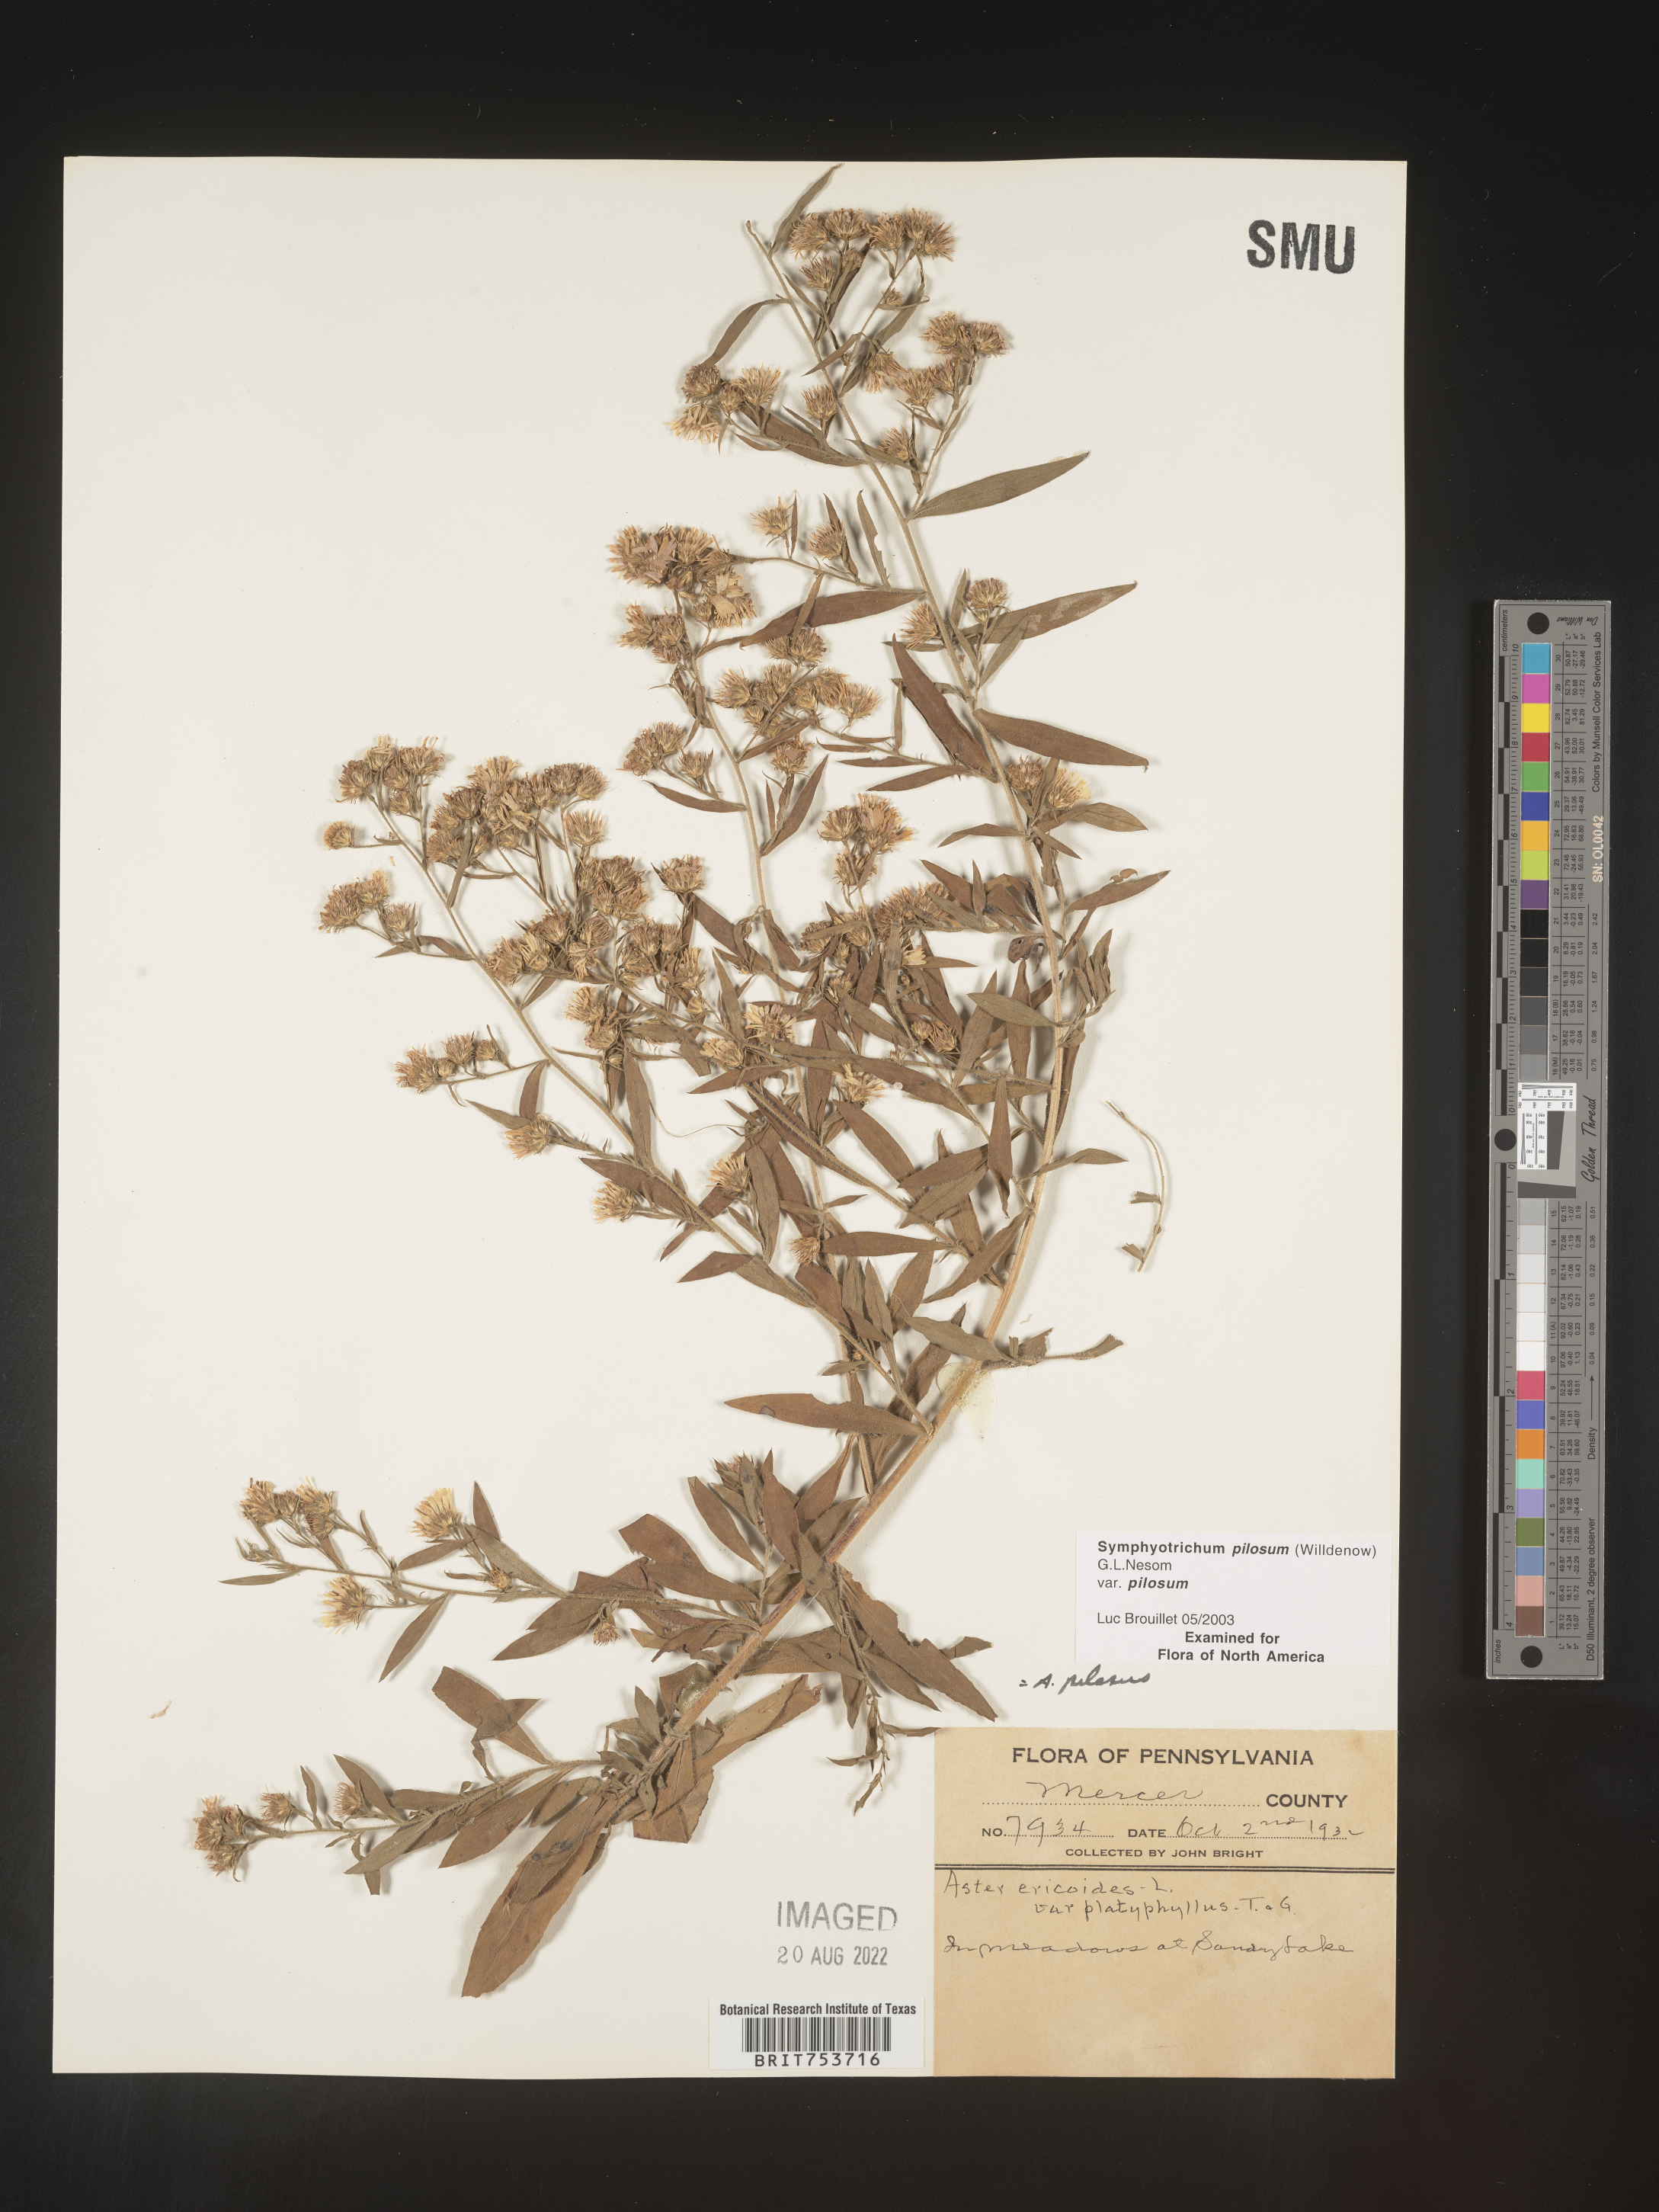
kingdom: Plantae
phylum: Tracheophyta
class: Magnoliopsida
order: Asterales
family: Asteraceae
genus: Symphyotrichum
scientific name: Symphyotrichum pilosum
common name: Awl aster
